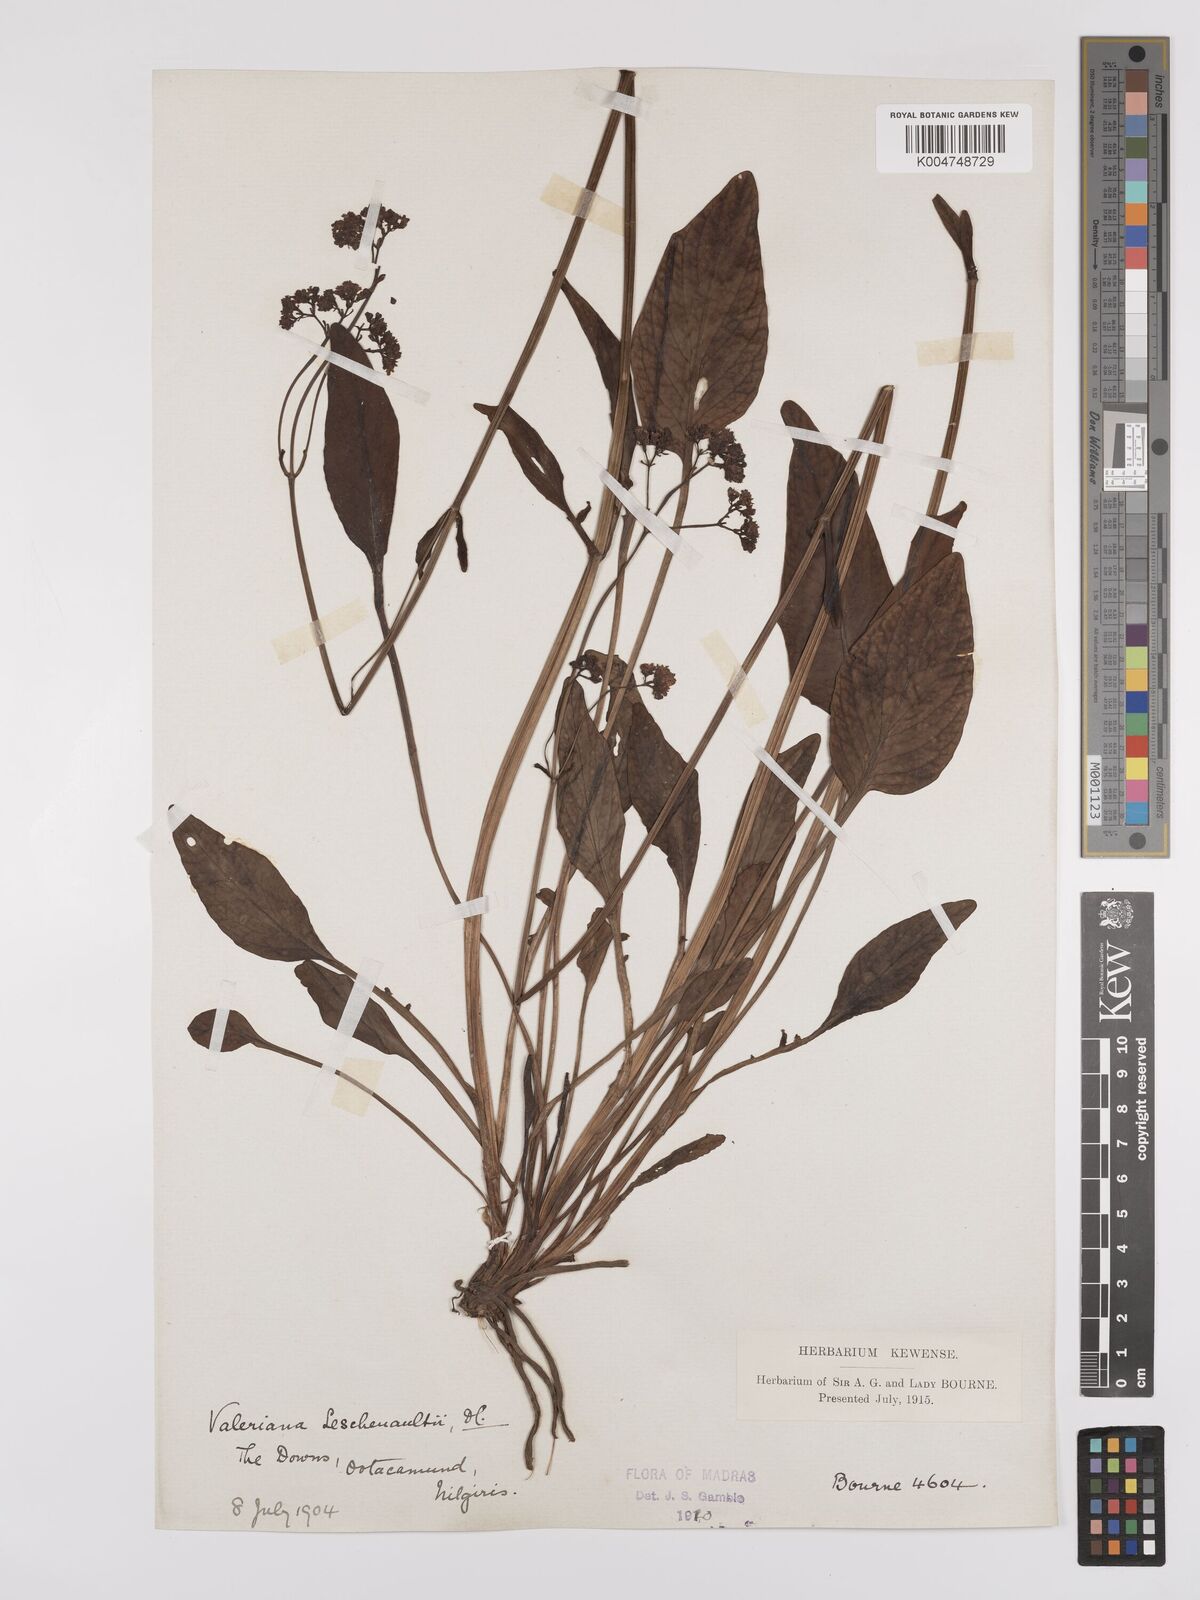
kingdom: Plantae
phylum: Tracheophyta
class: Magnoliopsida
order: Dipsacales
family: Caprifoliaceae
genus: Valeriana
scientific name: Valeriana leschenaultii
